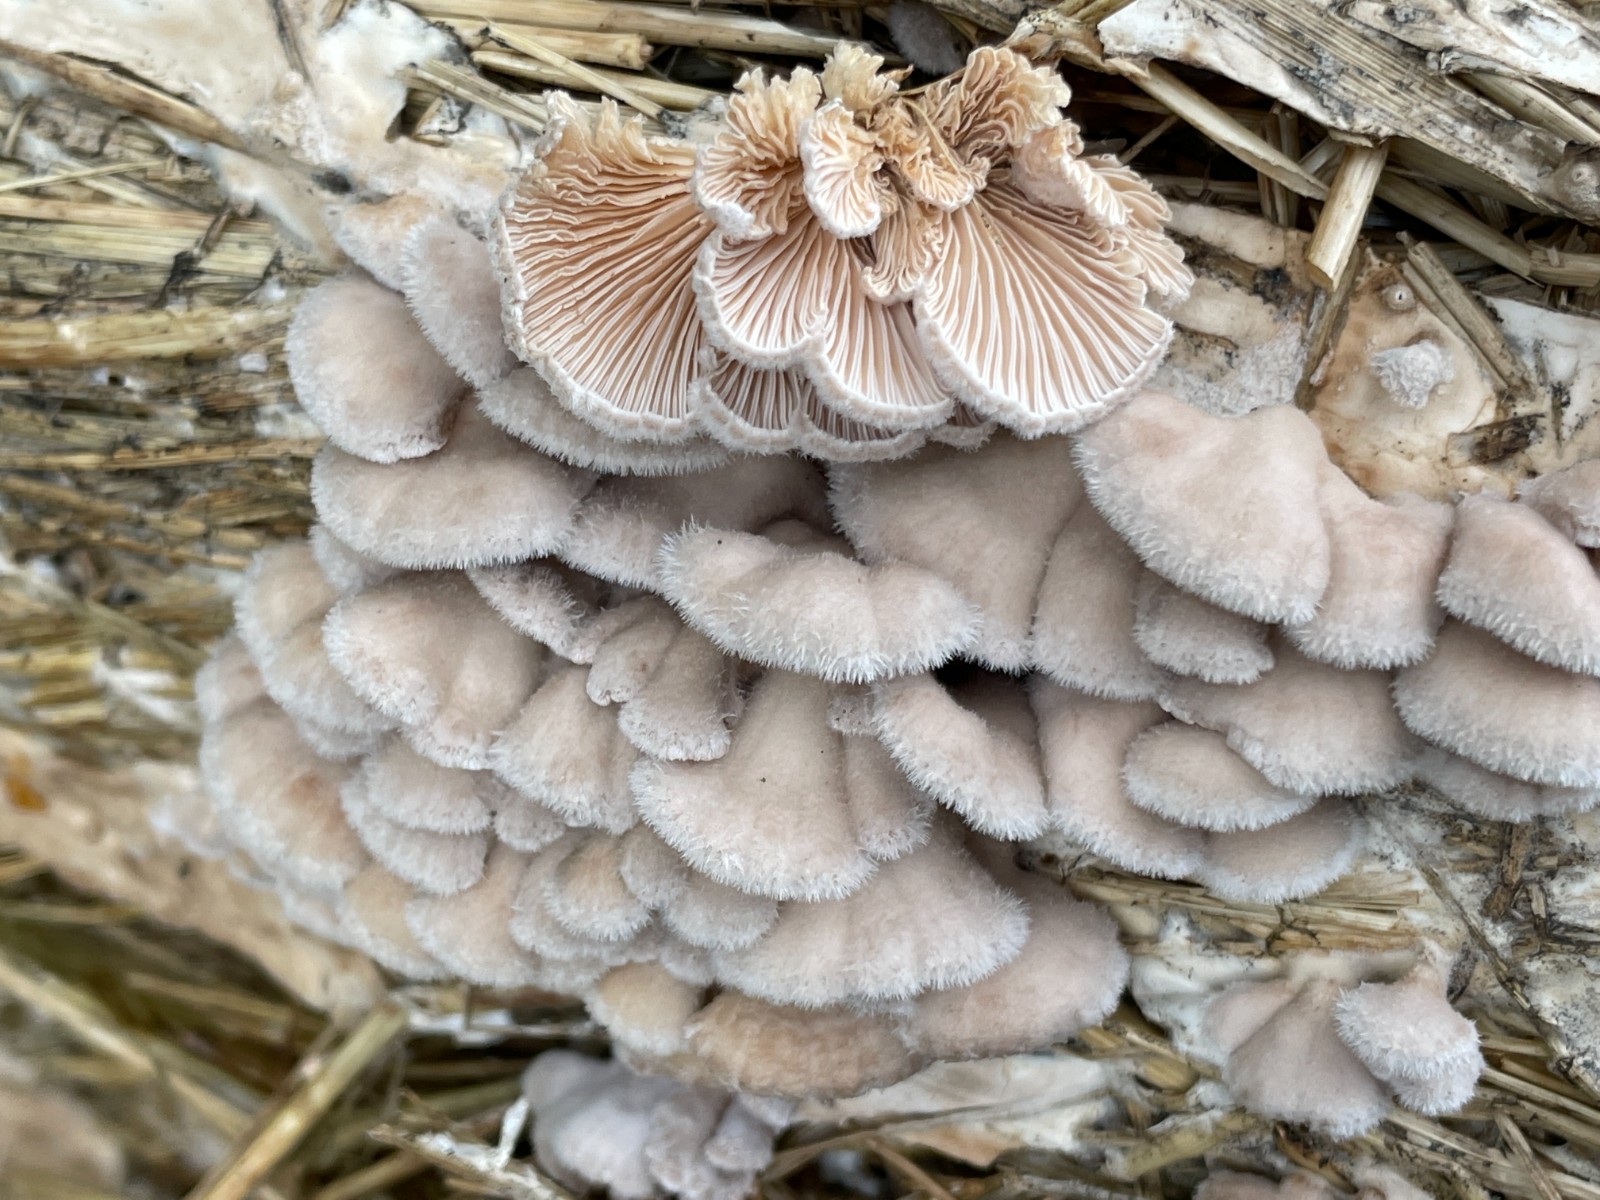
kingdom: Fungi
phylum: Basidiomycota
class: Agaricomycetes
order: Agaricales
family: Schizophyllaceae
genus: Schizophyllum
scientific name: Schizophyllum commune
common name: kløvblad
